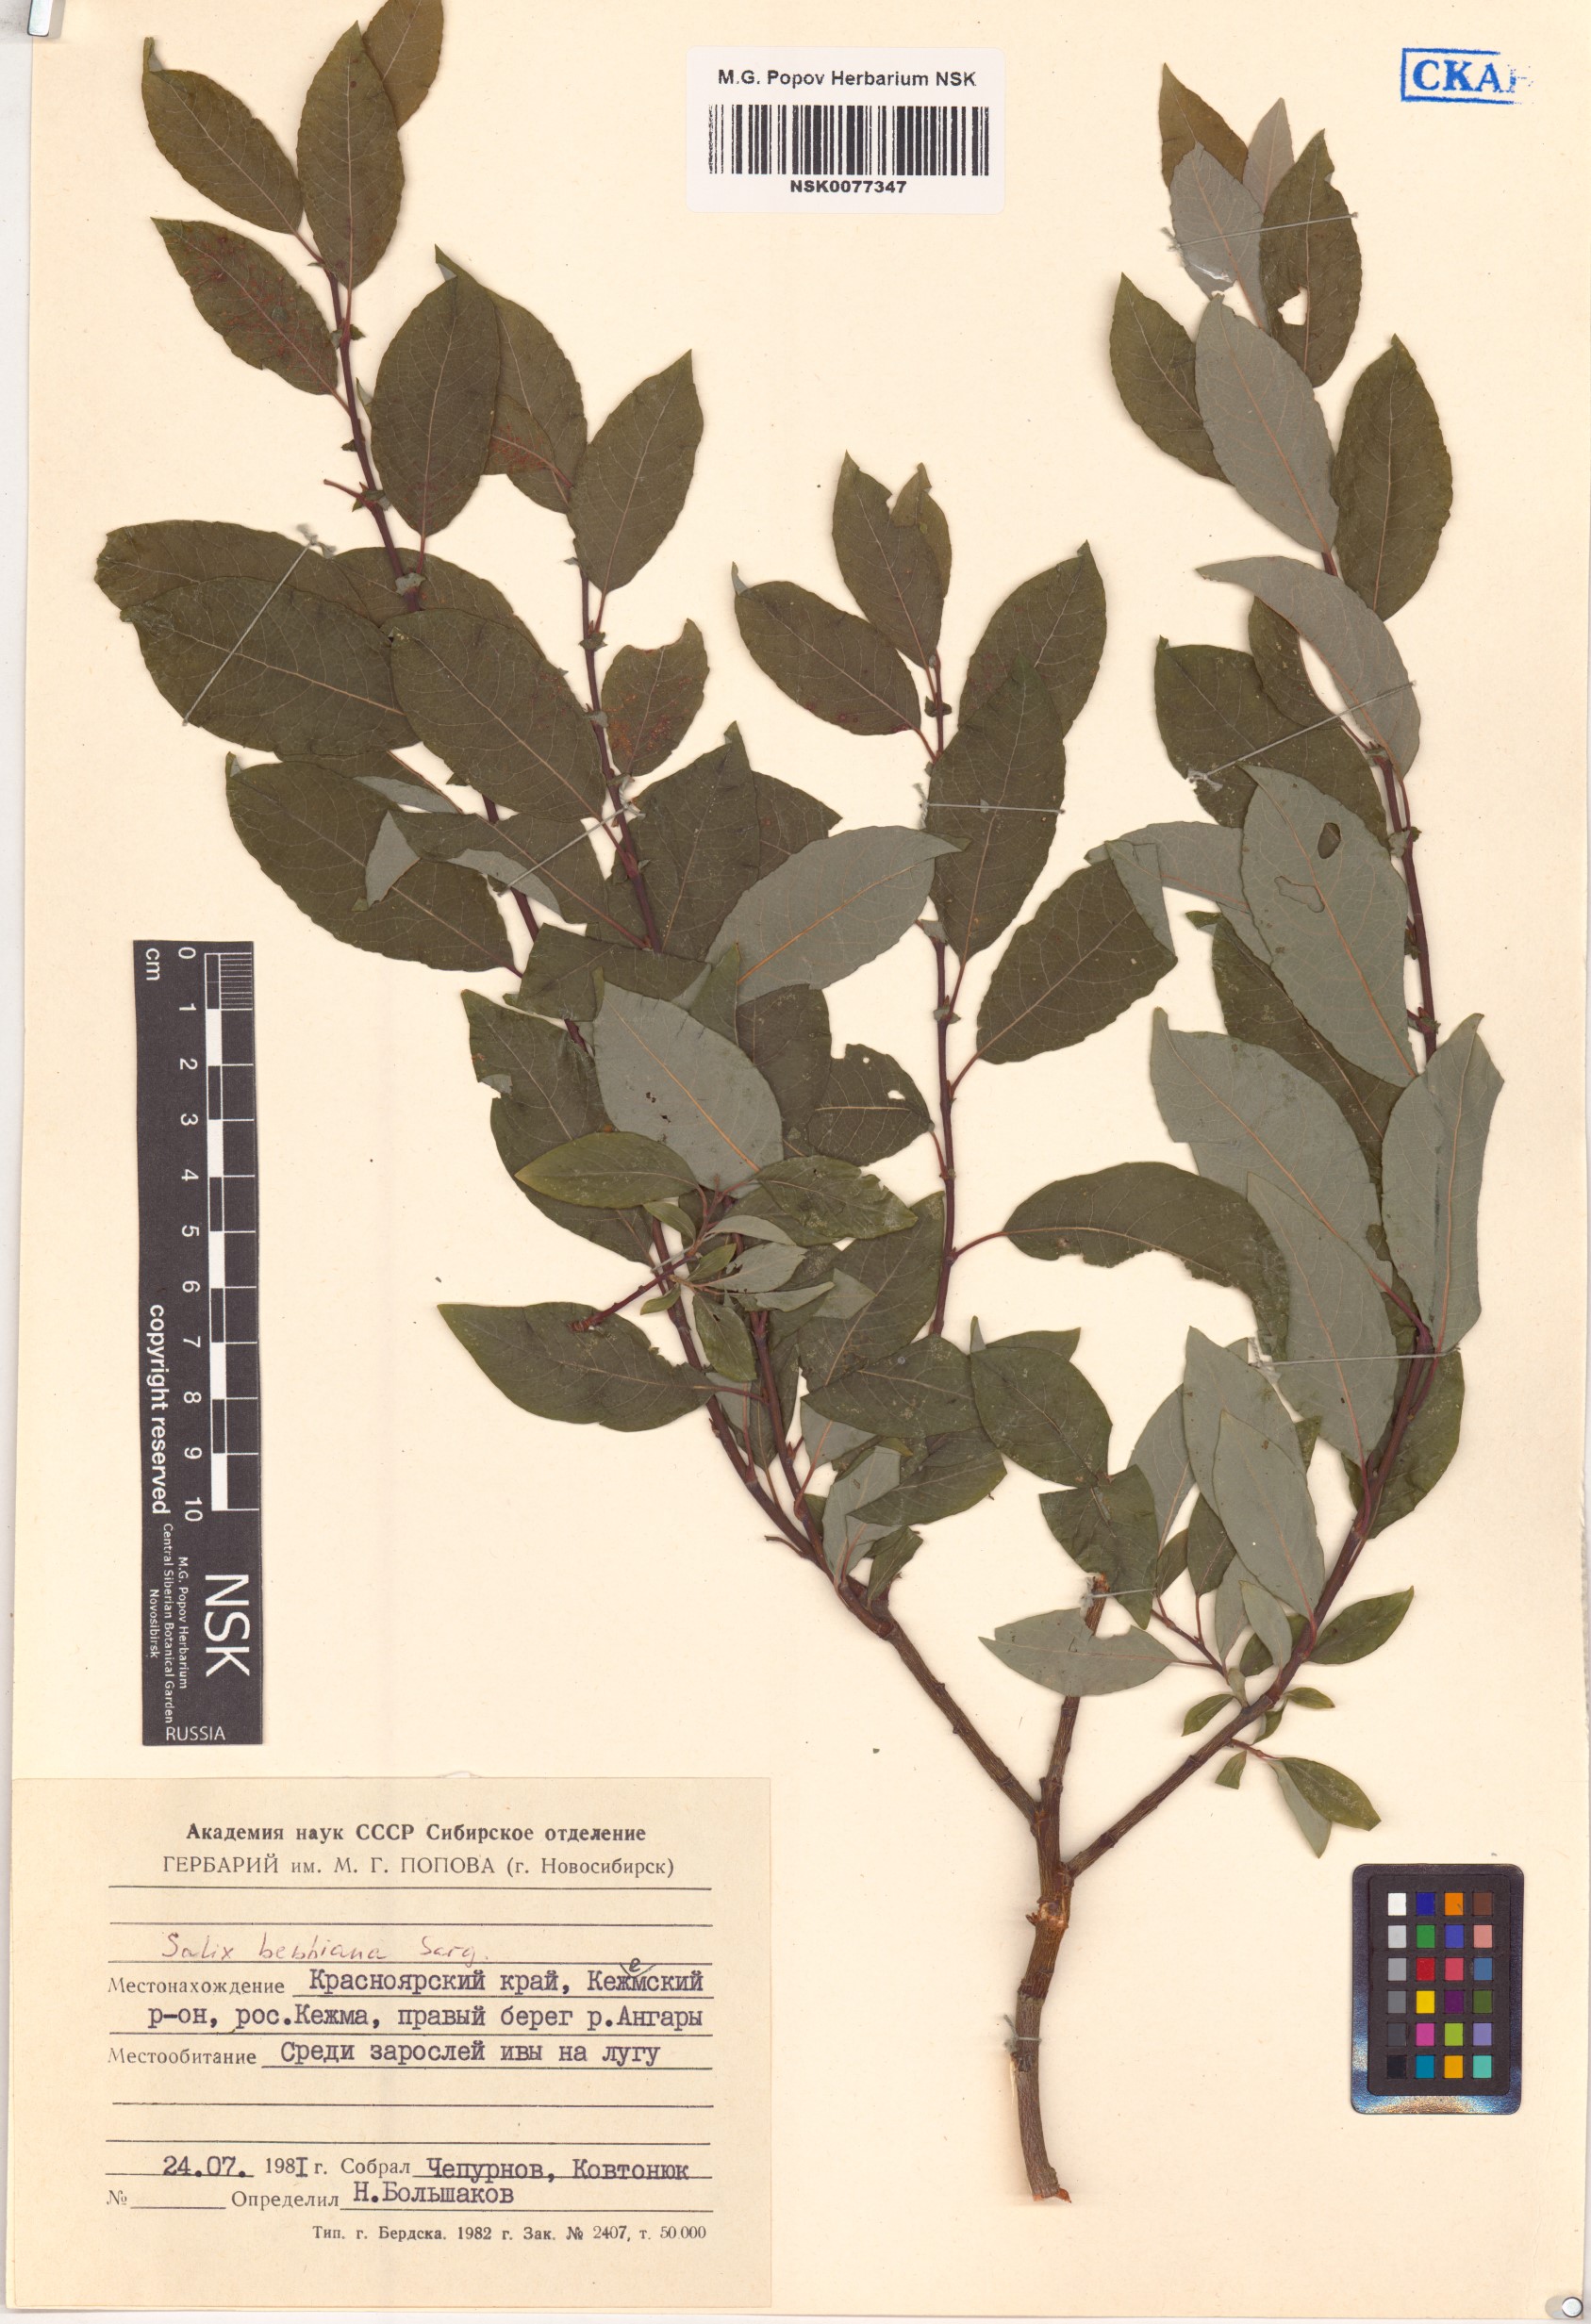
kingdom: Plantae
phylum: Tracheophyta
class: Magnoliopsida
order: Malpighiales
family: Salicaceae
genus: Salix
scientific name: Salix bebbiana
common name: Bebb's willow
